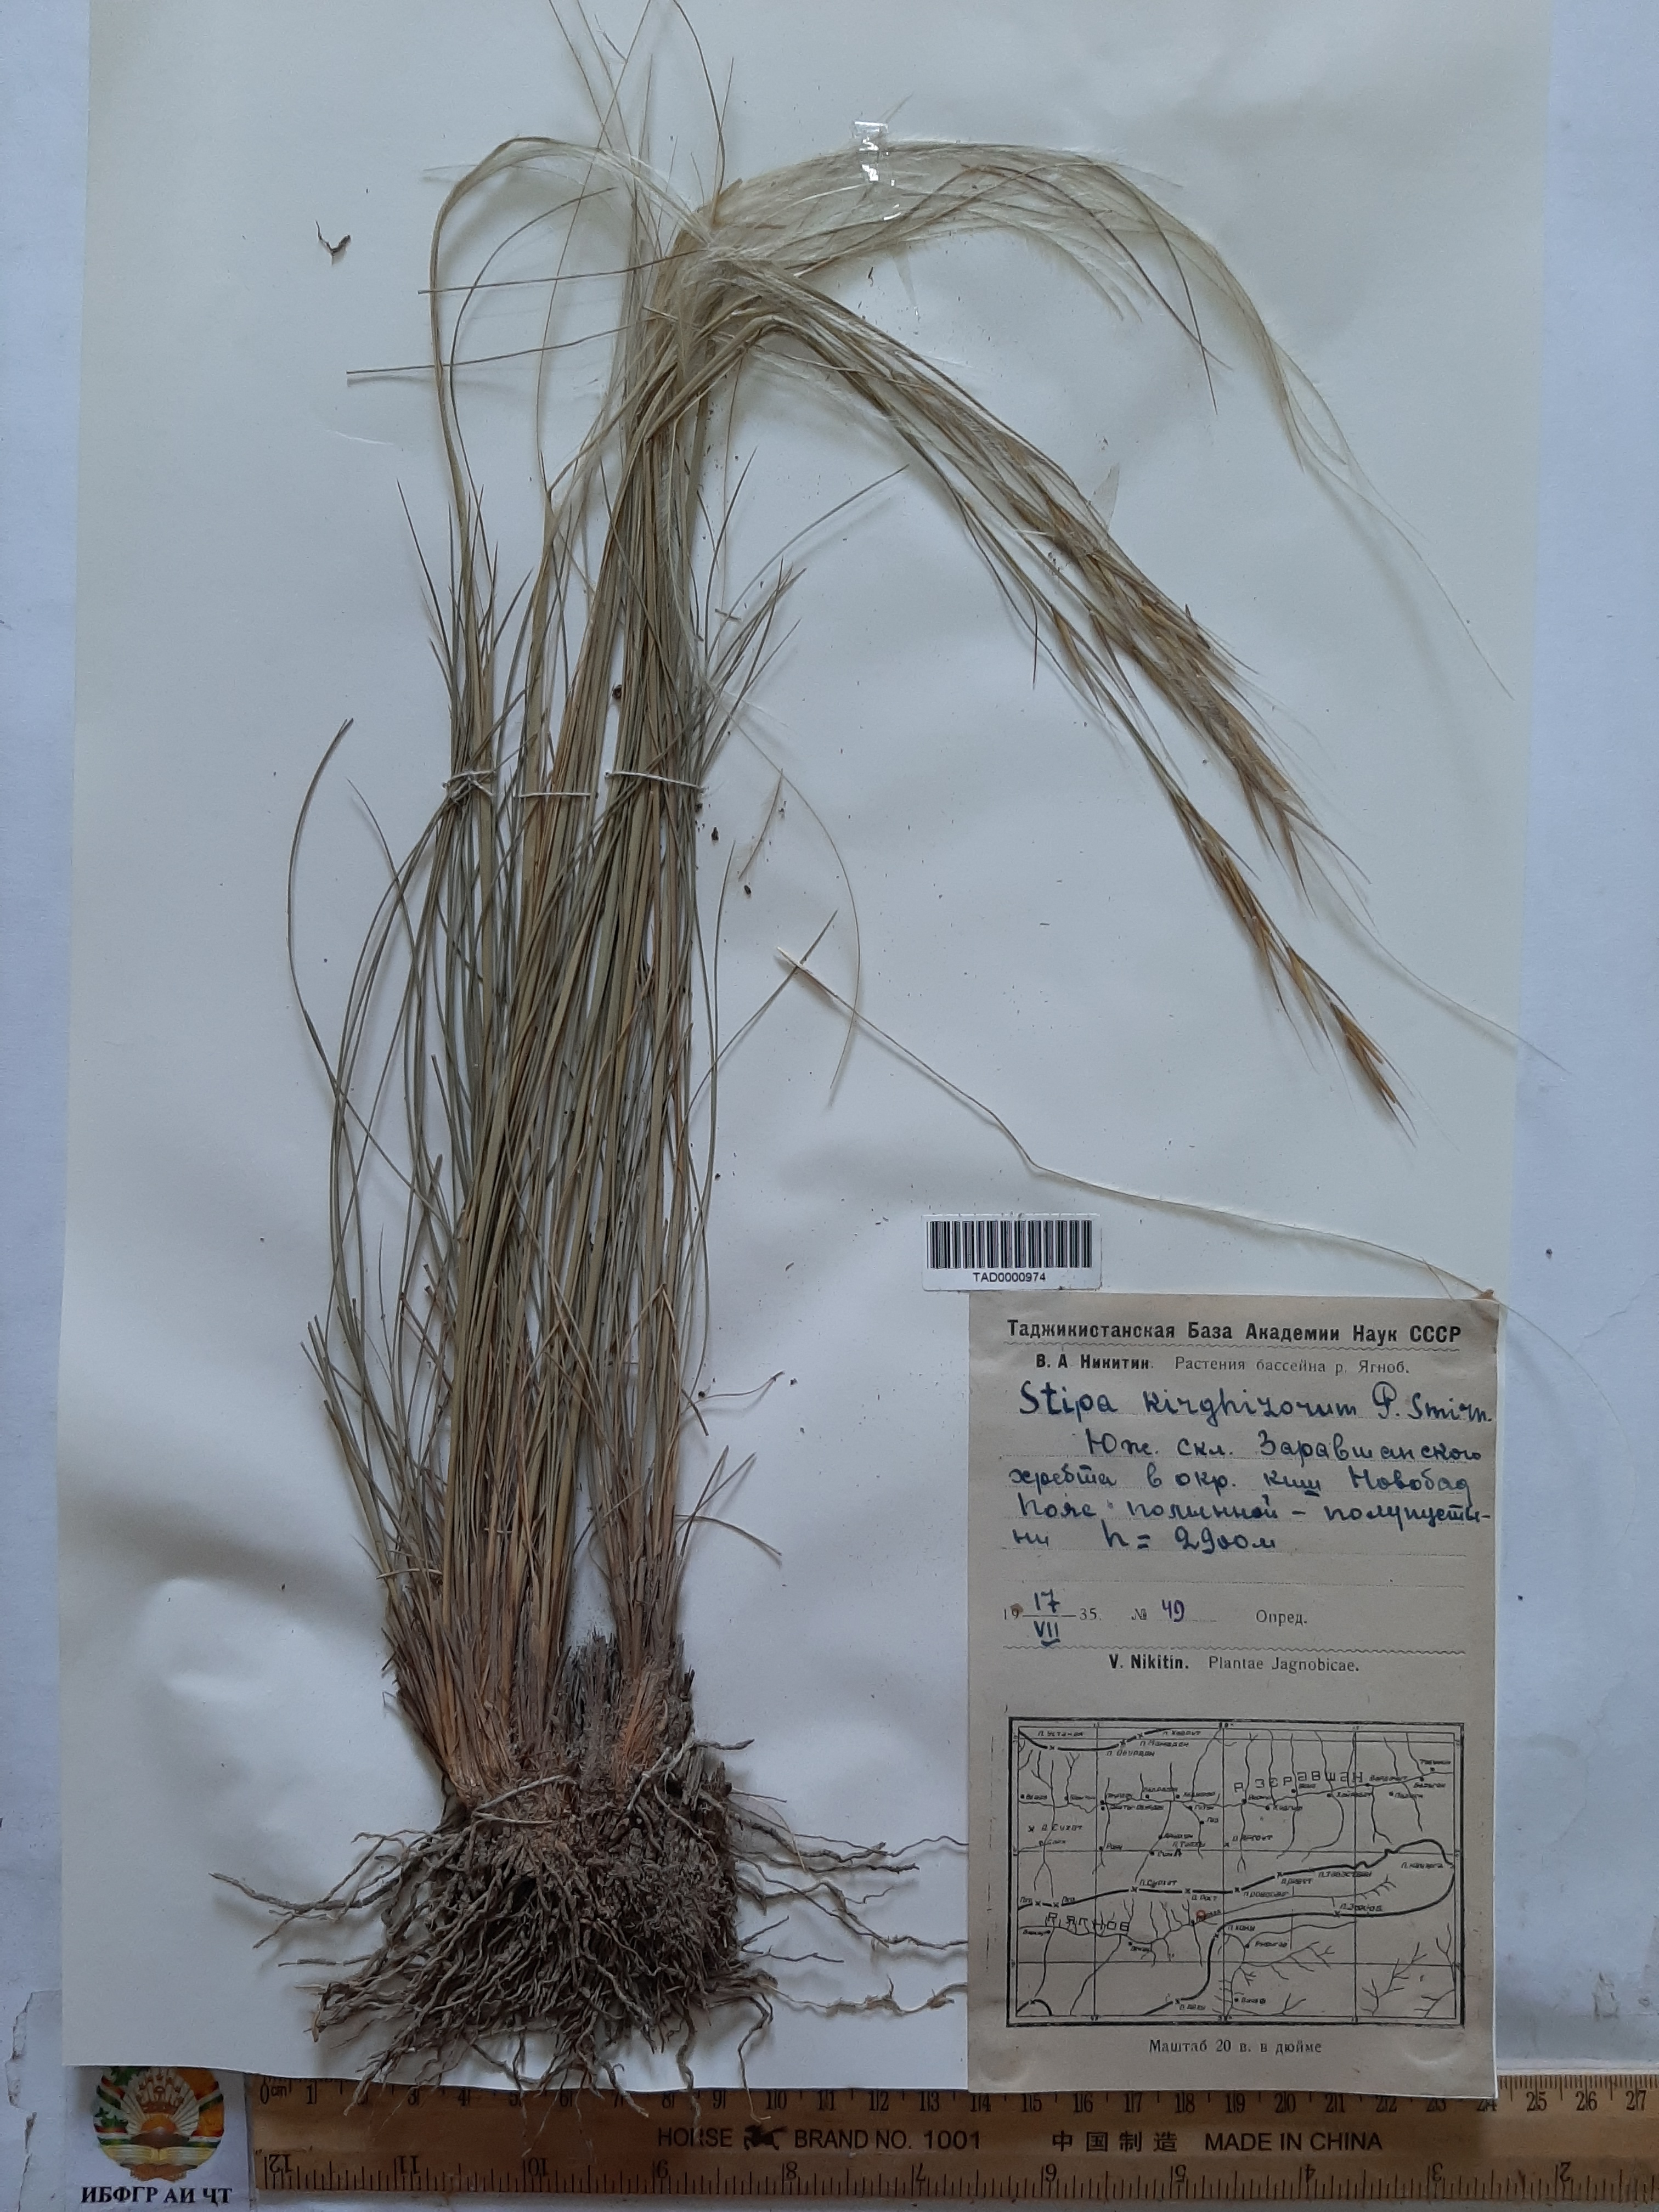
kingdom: Plantae
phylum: Tracheophyta
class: Liliopsida
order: Poales
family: Poaceae
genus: Stipa
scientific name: Stipa kirghisorum
